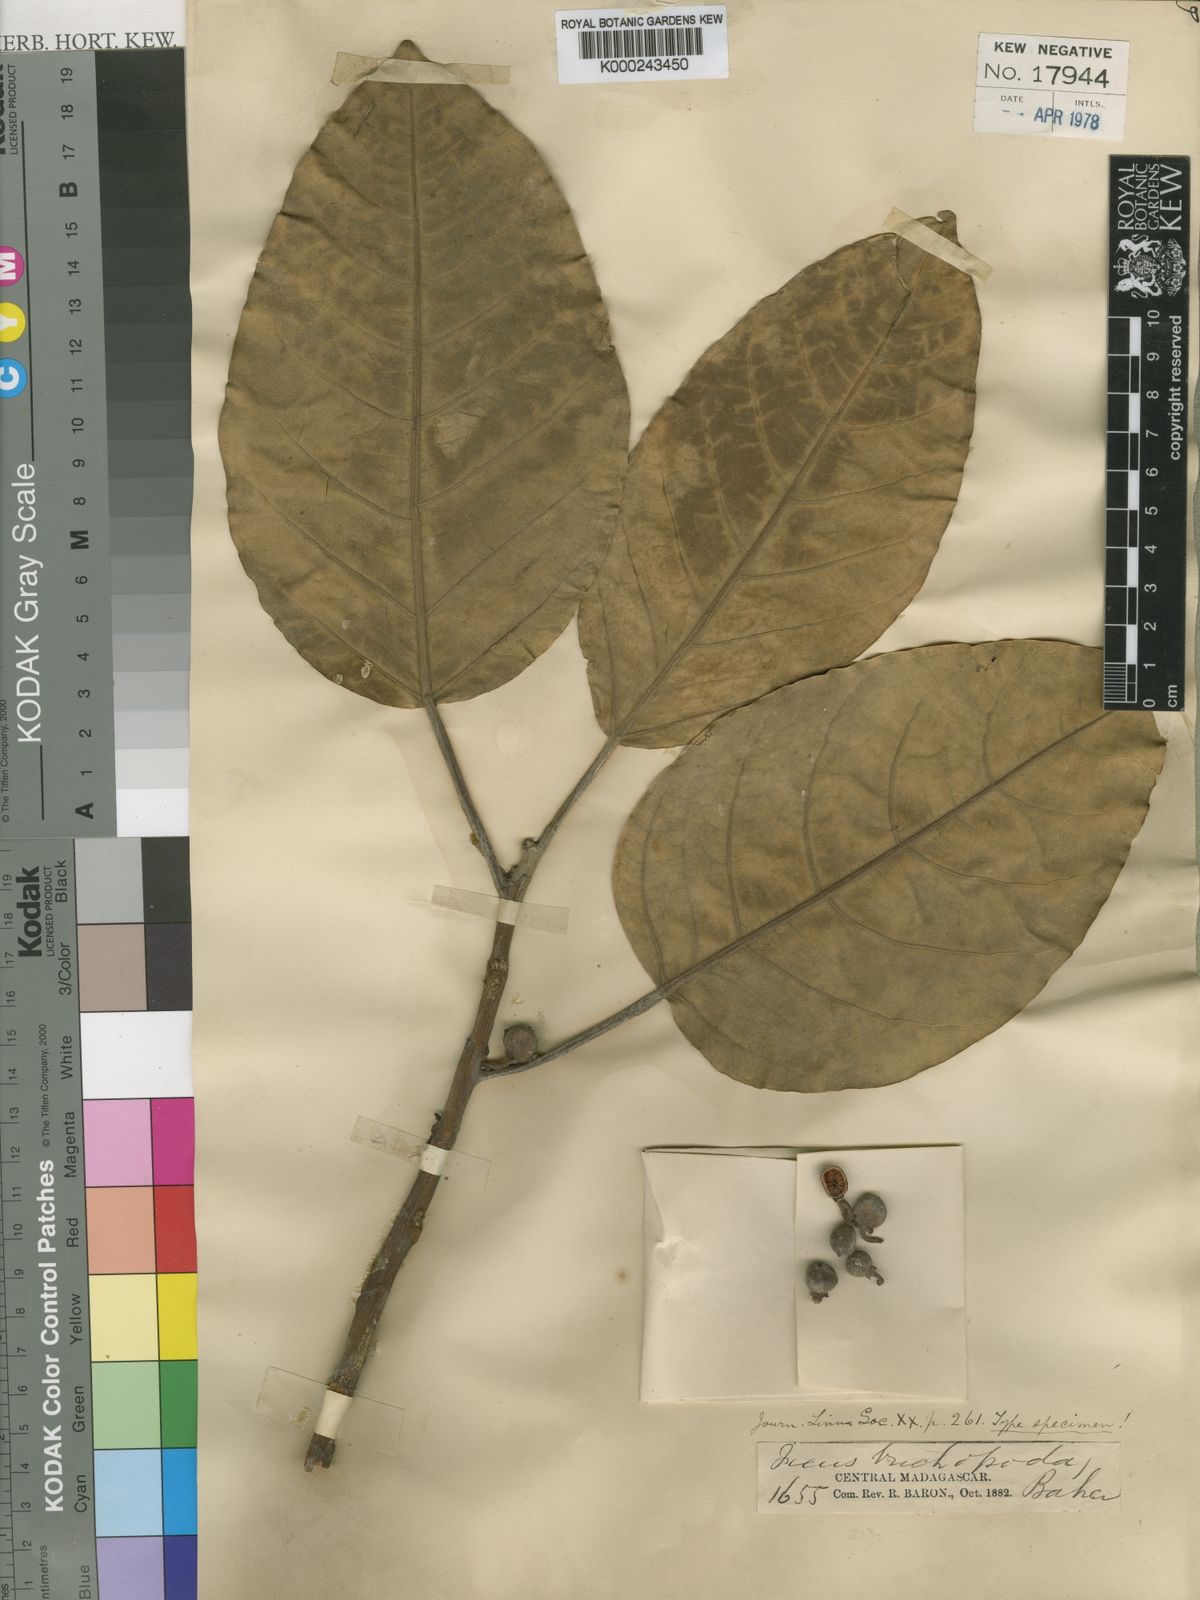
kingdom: Plantae
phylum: Tracheophyta
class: Magnoliopsida
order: Rosales
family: Moraceae
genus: Ficus
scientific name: Ficus trichopoda
